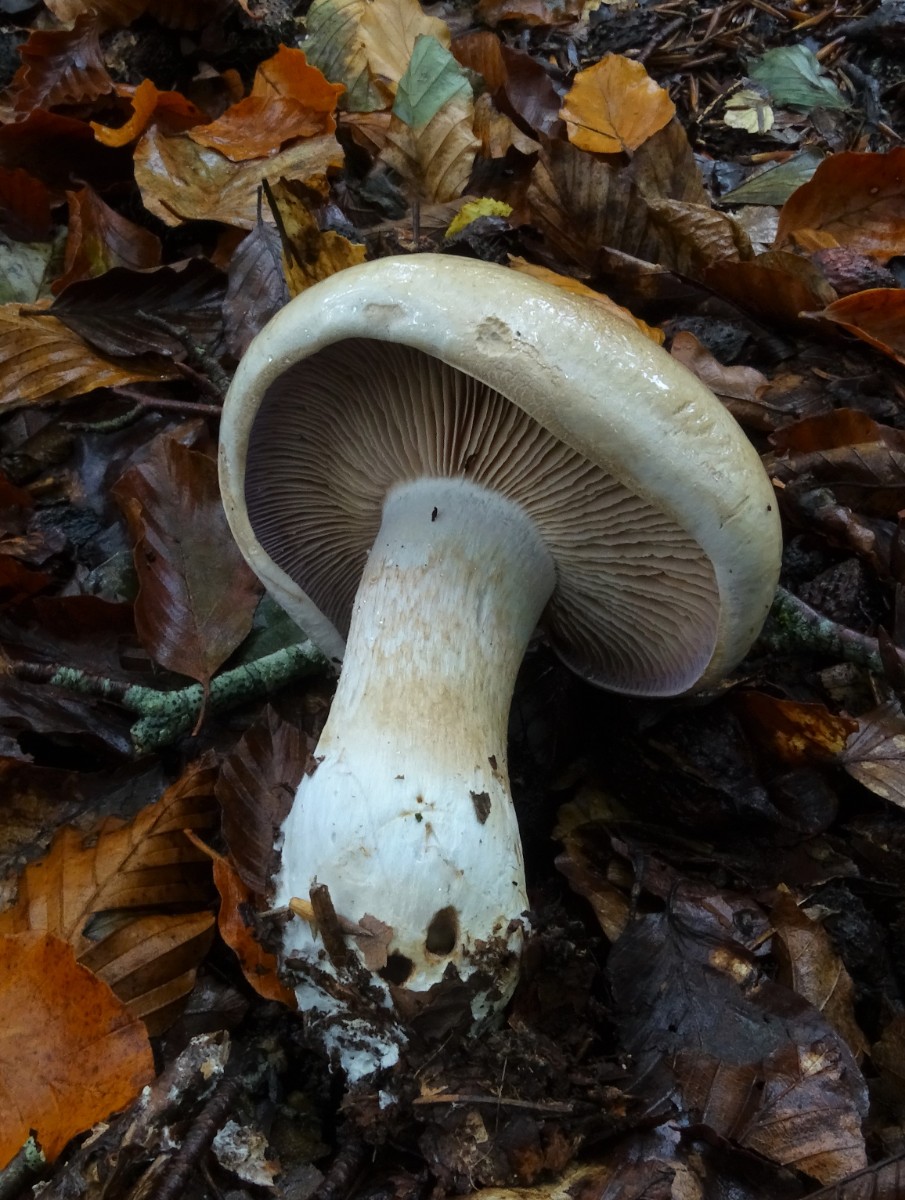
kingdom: Fungi
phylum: Basidiomycota
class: Agaricomycetes
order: Agaricales
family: Cortinariaceae
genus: Cortinarius
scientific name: Cortinarius largus
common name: violetrandet slørhat
